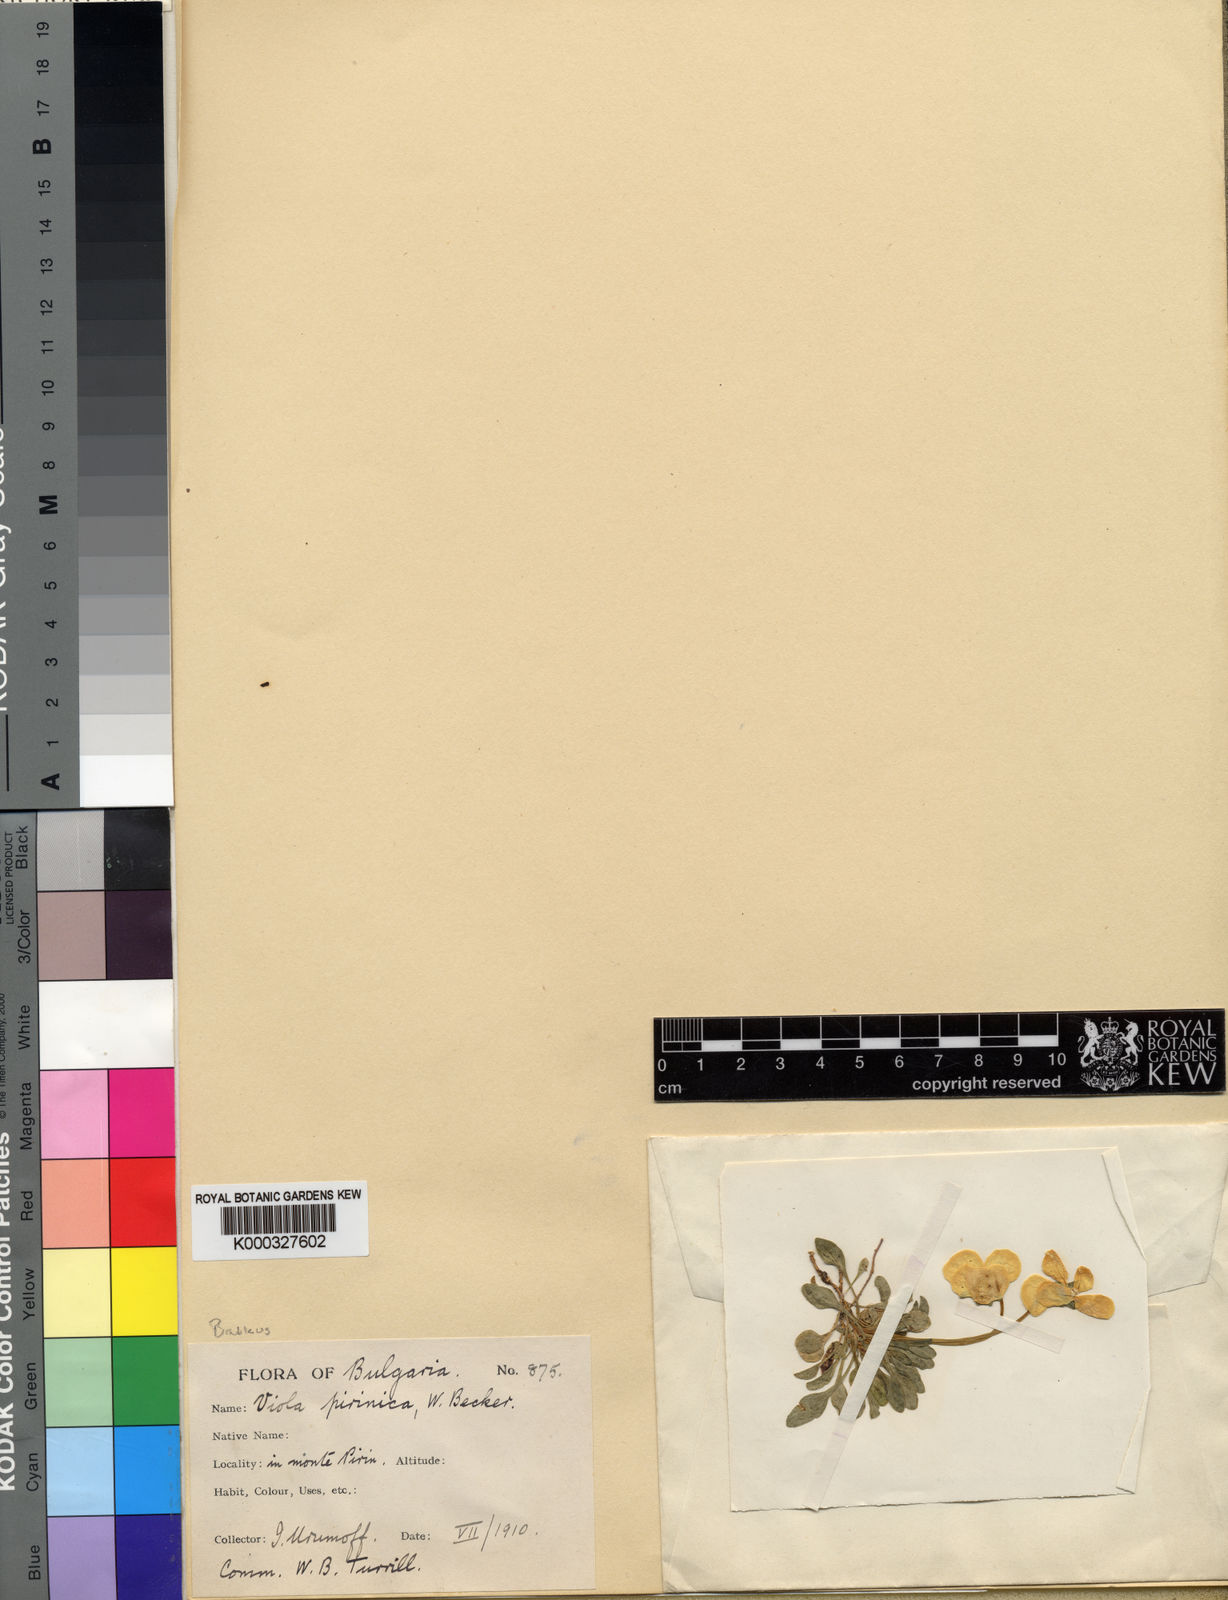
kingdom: Plantae
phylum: Tracheophyta
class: Magnoliopsida
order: Malpighiales
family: Violaceae
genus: Viola
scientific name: Viola perinensis
